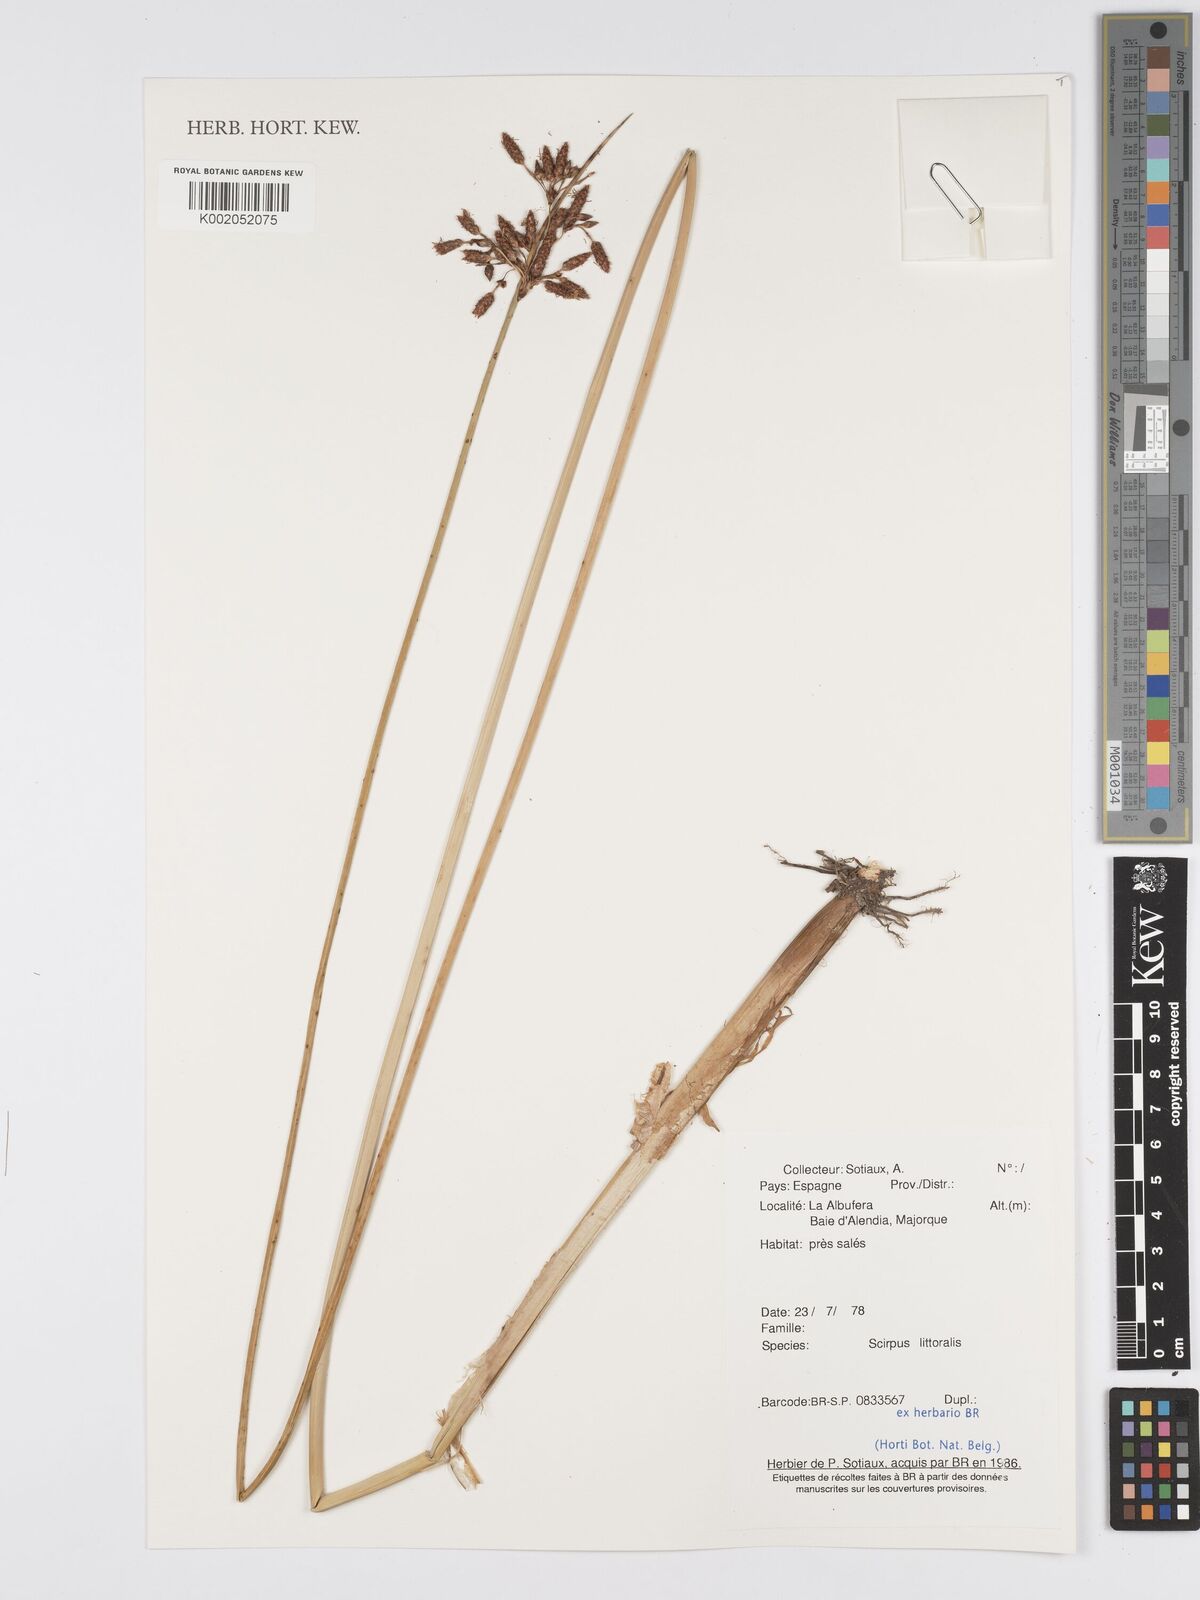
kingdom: Plantae
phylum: Tracheophyta
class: Liliopsida
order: Poales
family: Cyperaceae
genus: Blysmus
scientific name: Blysmus rufus
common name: Saltmarsh flat-sedge
